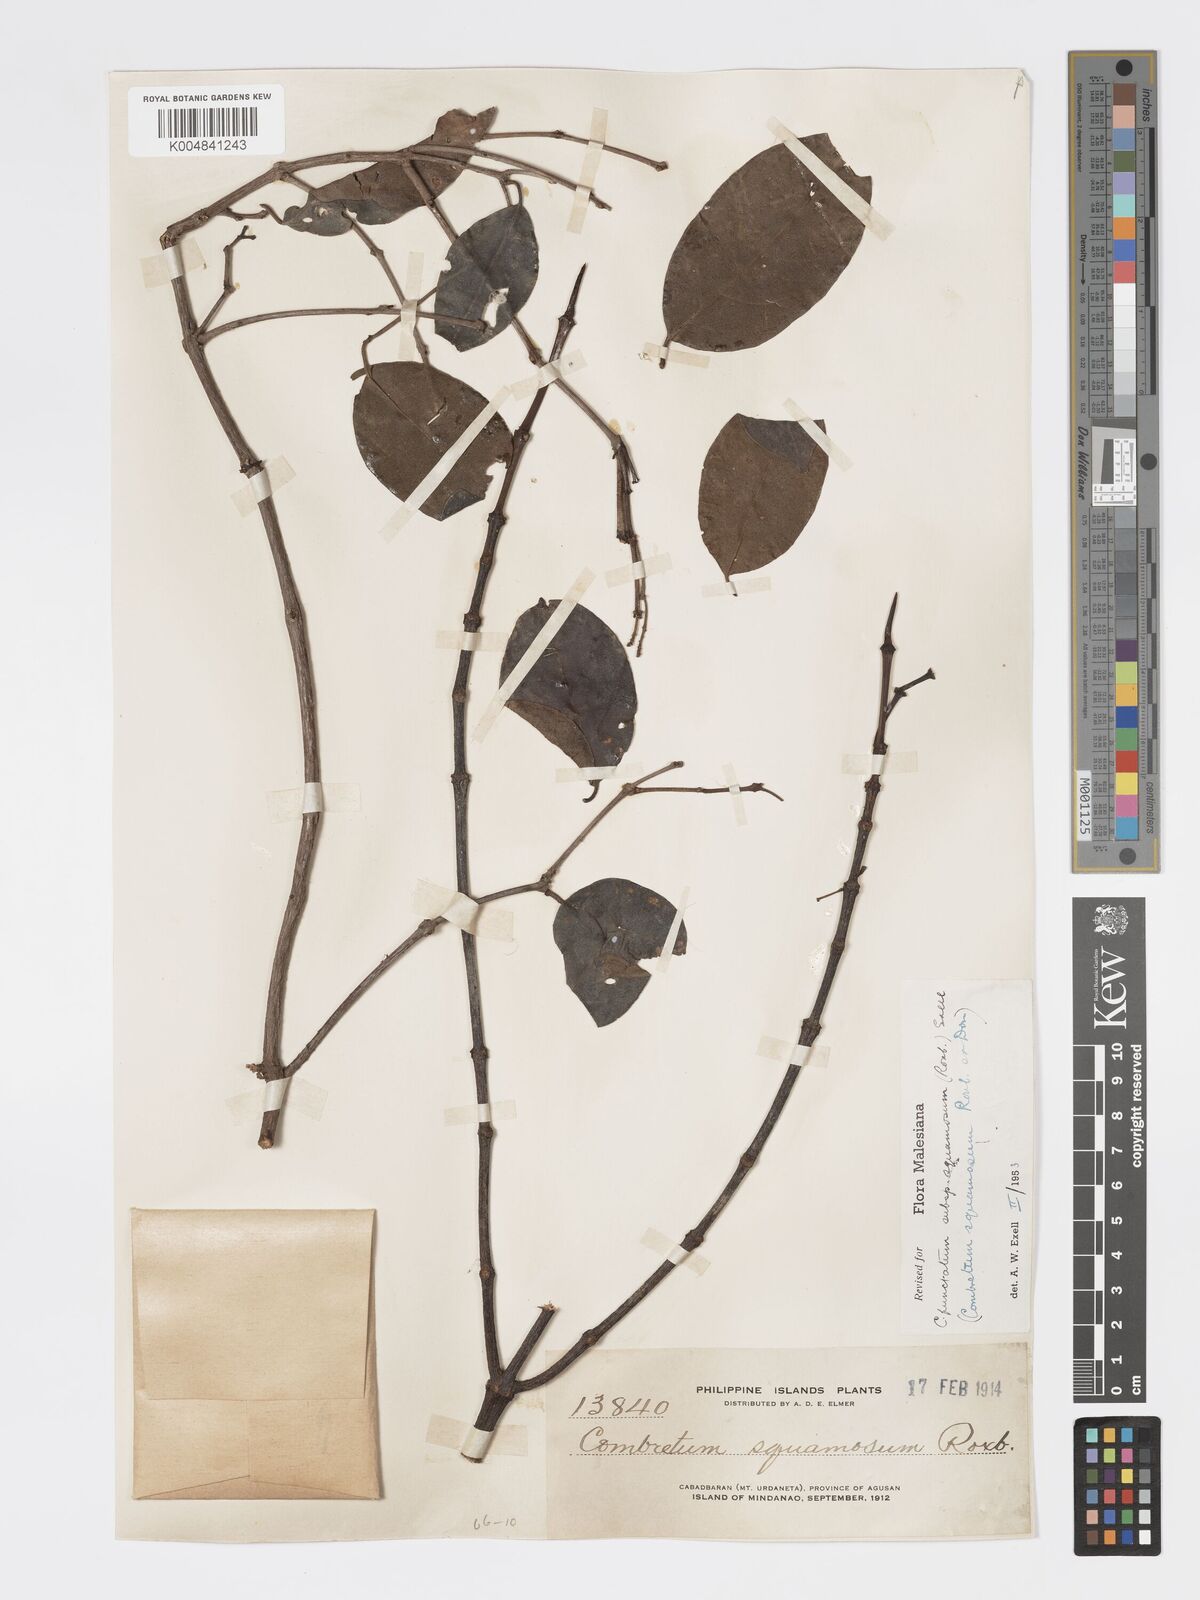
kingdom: Plantae
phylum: Tracheophyta
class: Magnoliopsida
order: Myrtales
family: Combretaceae
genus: Combretum
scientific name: Combretum
